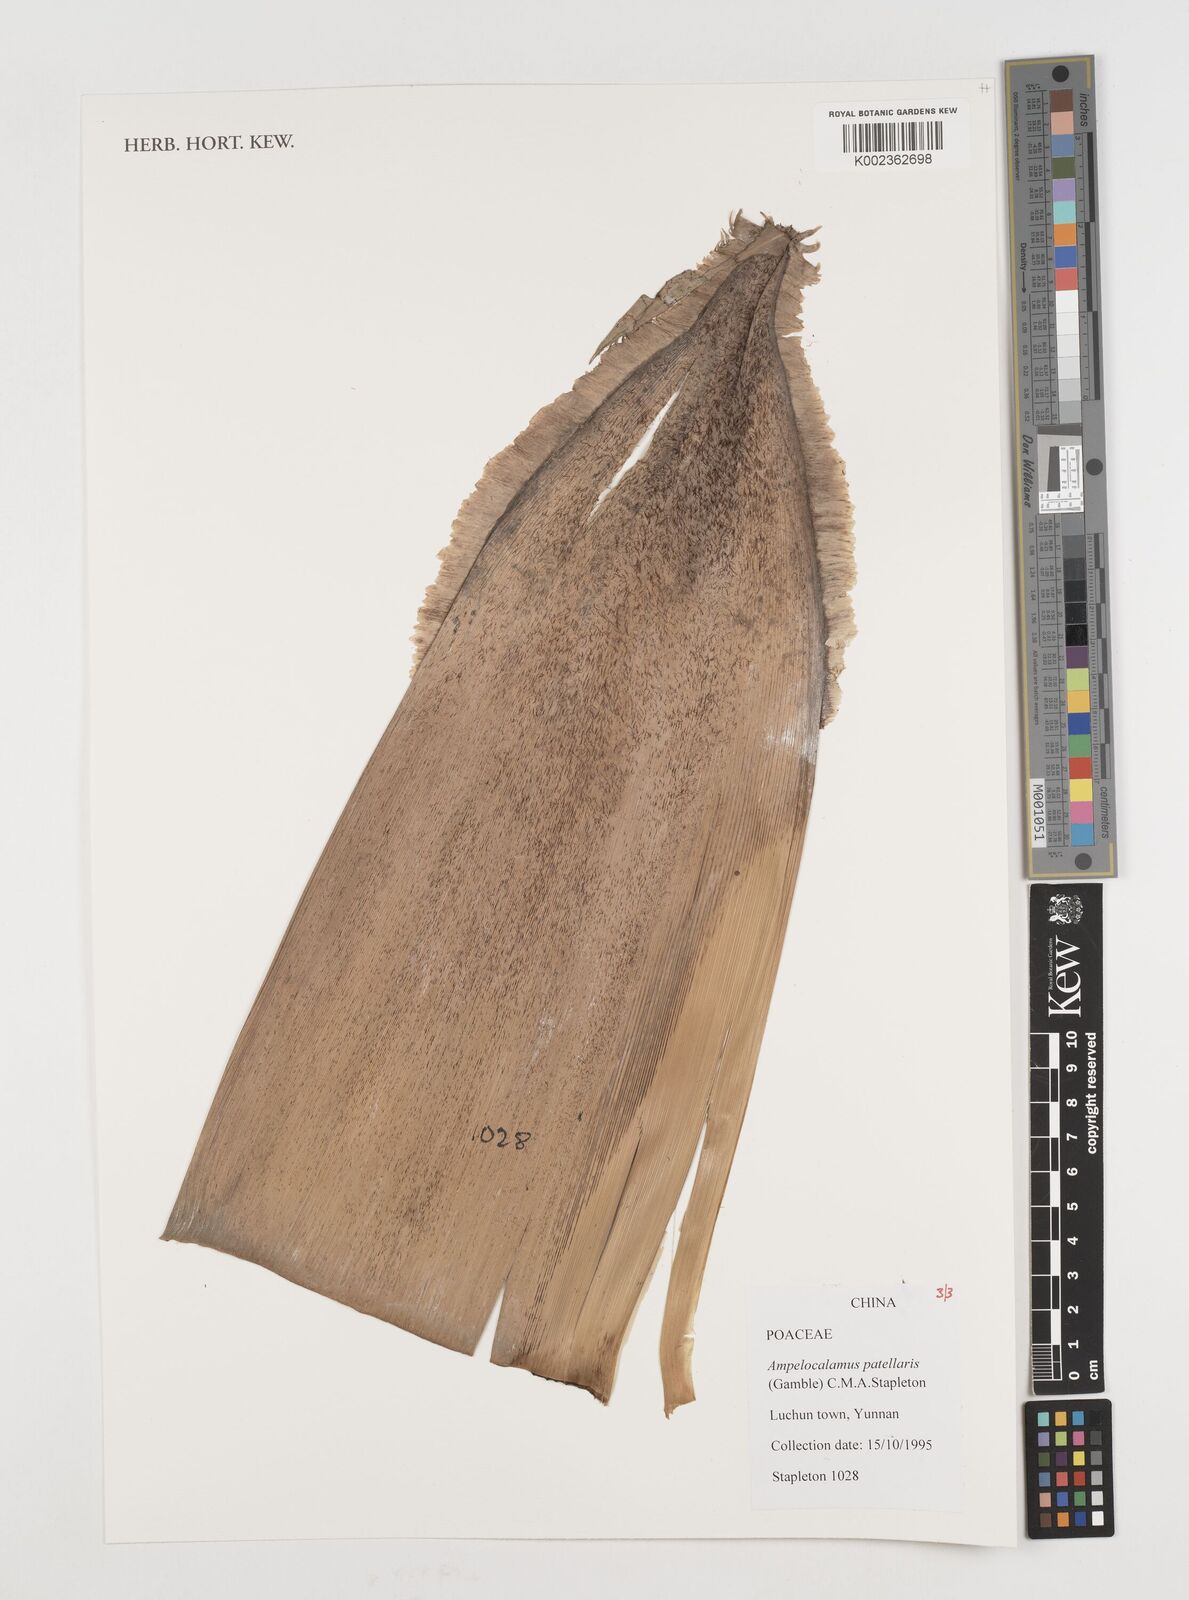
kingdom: Plantae
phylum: Tracheophyta
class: Liliopsida
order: Poales
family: Poaceae
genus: Ampelocalamus
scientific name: Ampelocalamus patellaris
